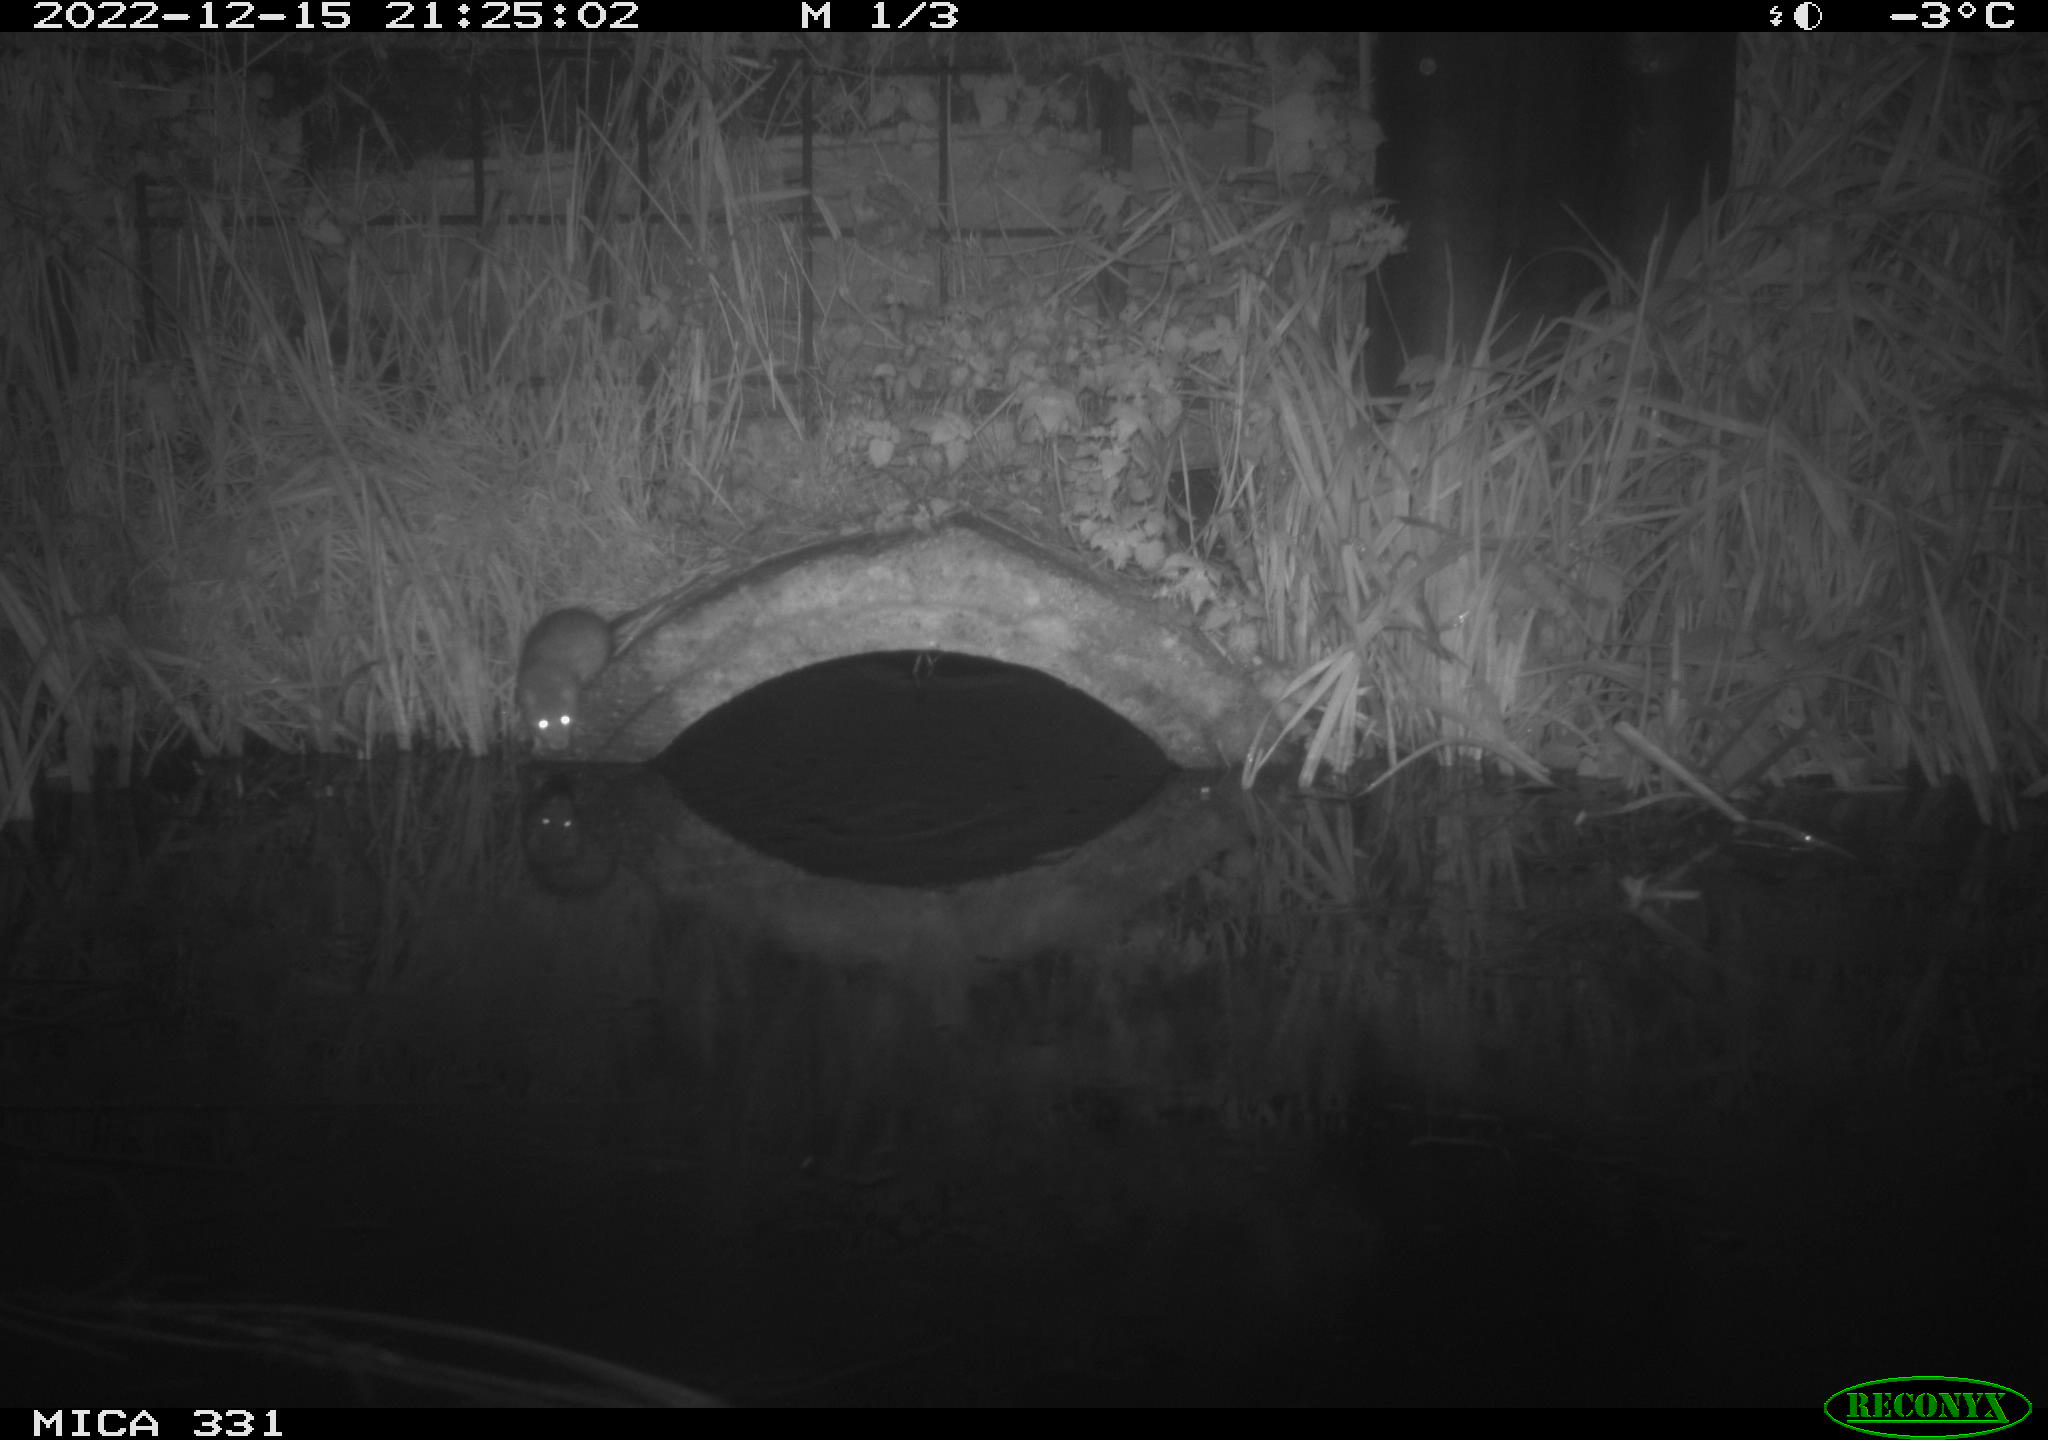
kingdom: Animalia
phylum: Chordata
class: Mammalia
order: Rodentia
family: Muridae
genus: Rattus
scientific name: Rattus norvegicus
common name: Brown rat
